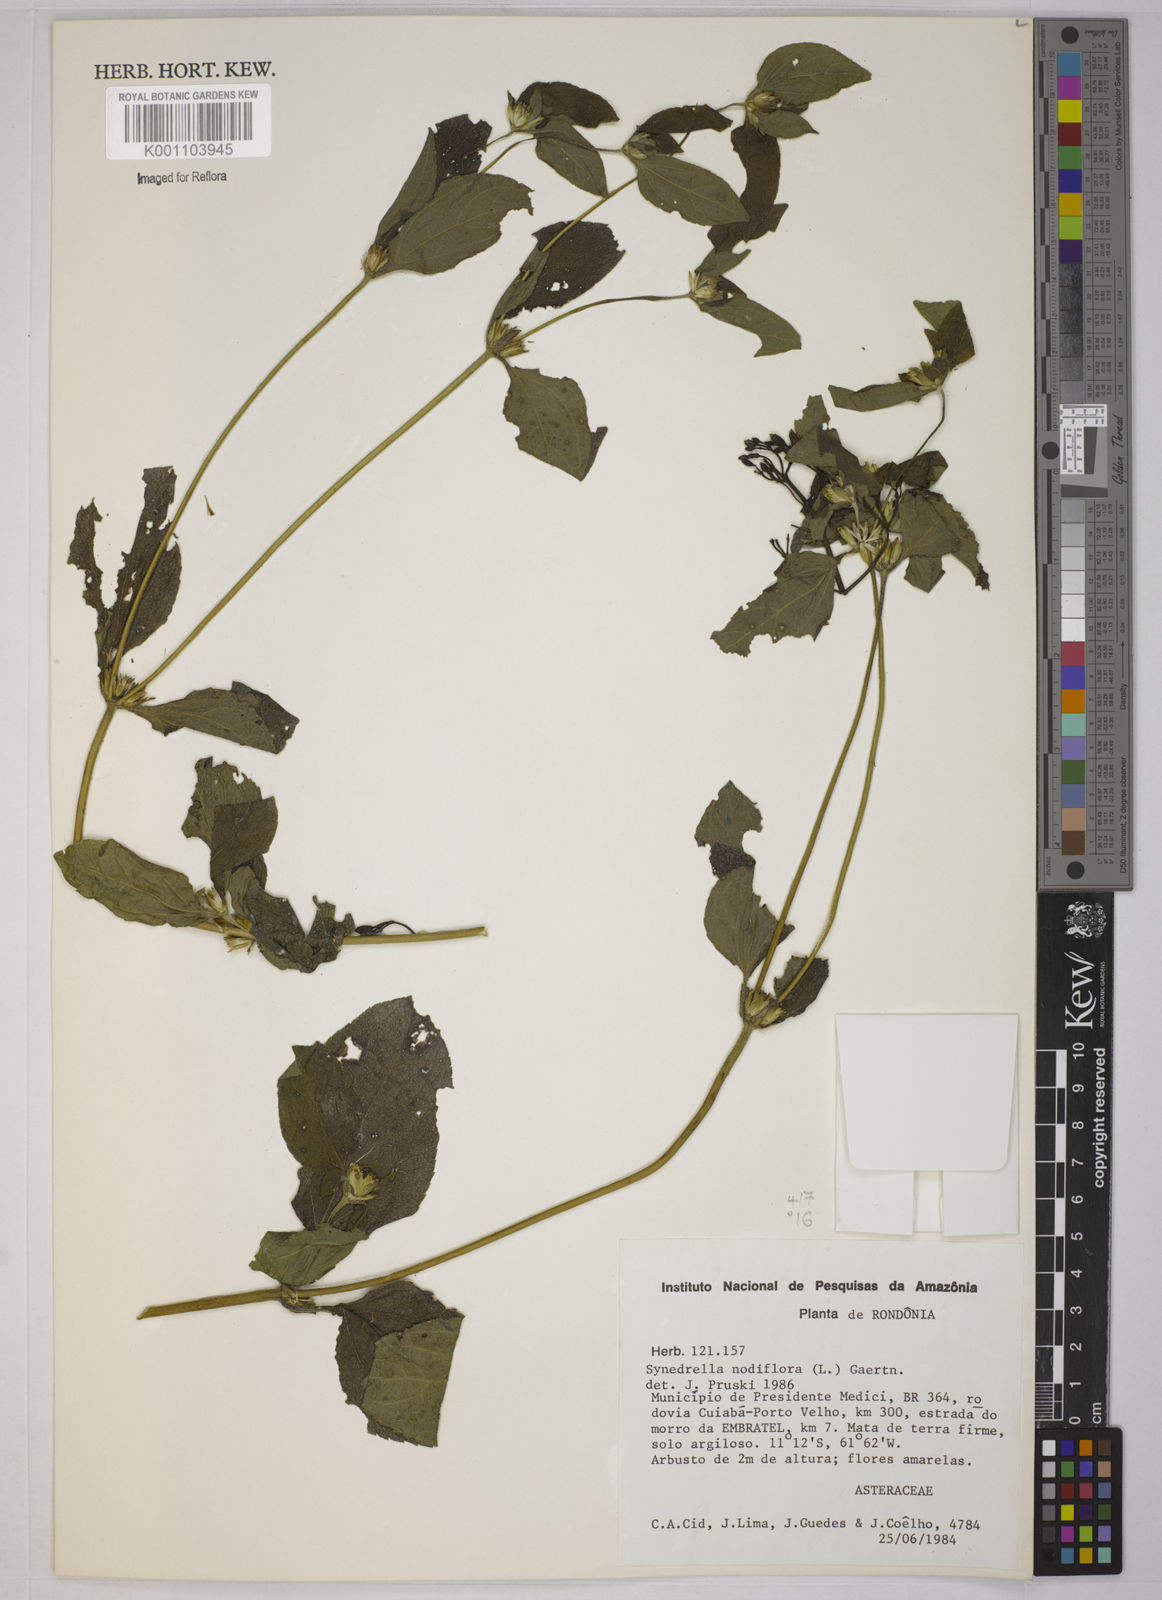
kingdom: Plantae
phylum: Tracheophyta
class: Magnoliopsida
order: Asterales
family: Asteraceae
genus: Synedrella
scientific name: Synedrella nodiflora
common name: Nodeweed
